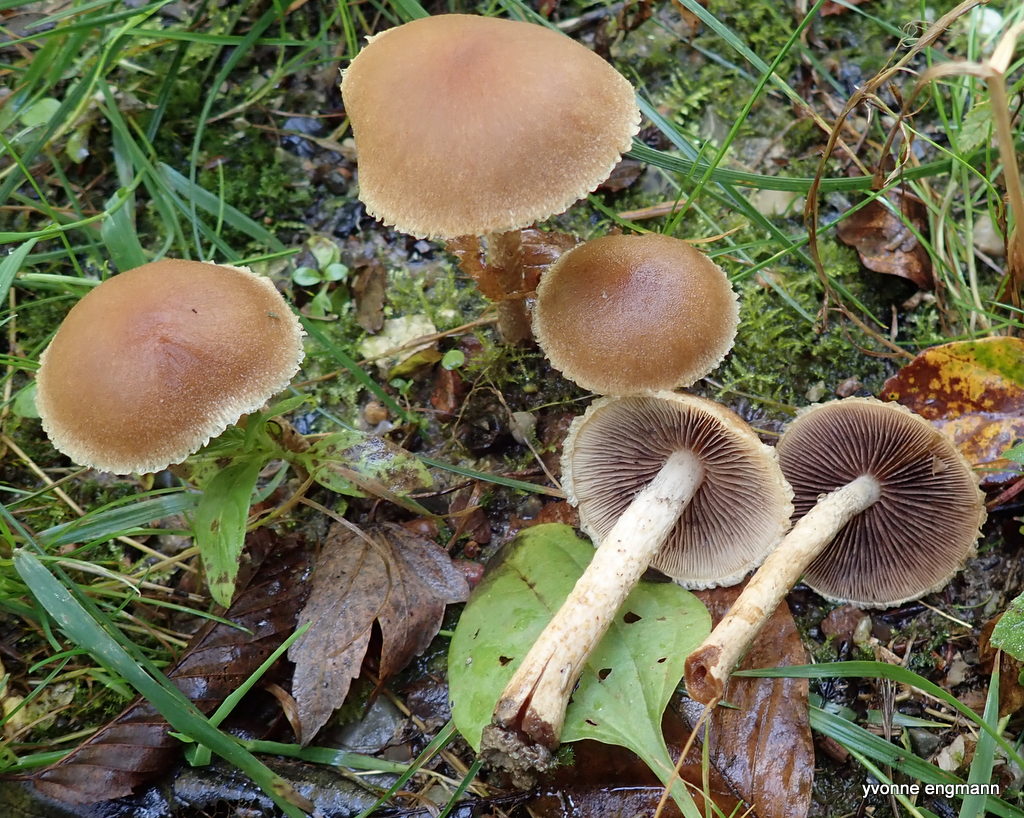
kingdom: Fungi
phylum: Basidiomycota
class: Agaricomycetes
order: Agaricales
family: Psathyrellaceae
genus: Lacrymaria
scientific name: Lacrymaria lacrymabunda
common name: grædende mørkhat
